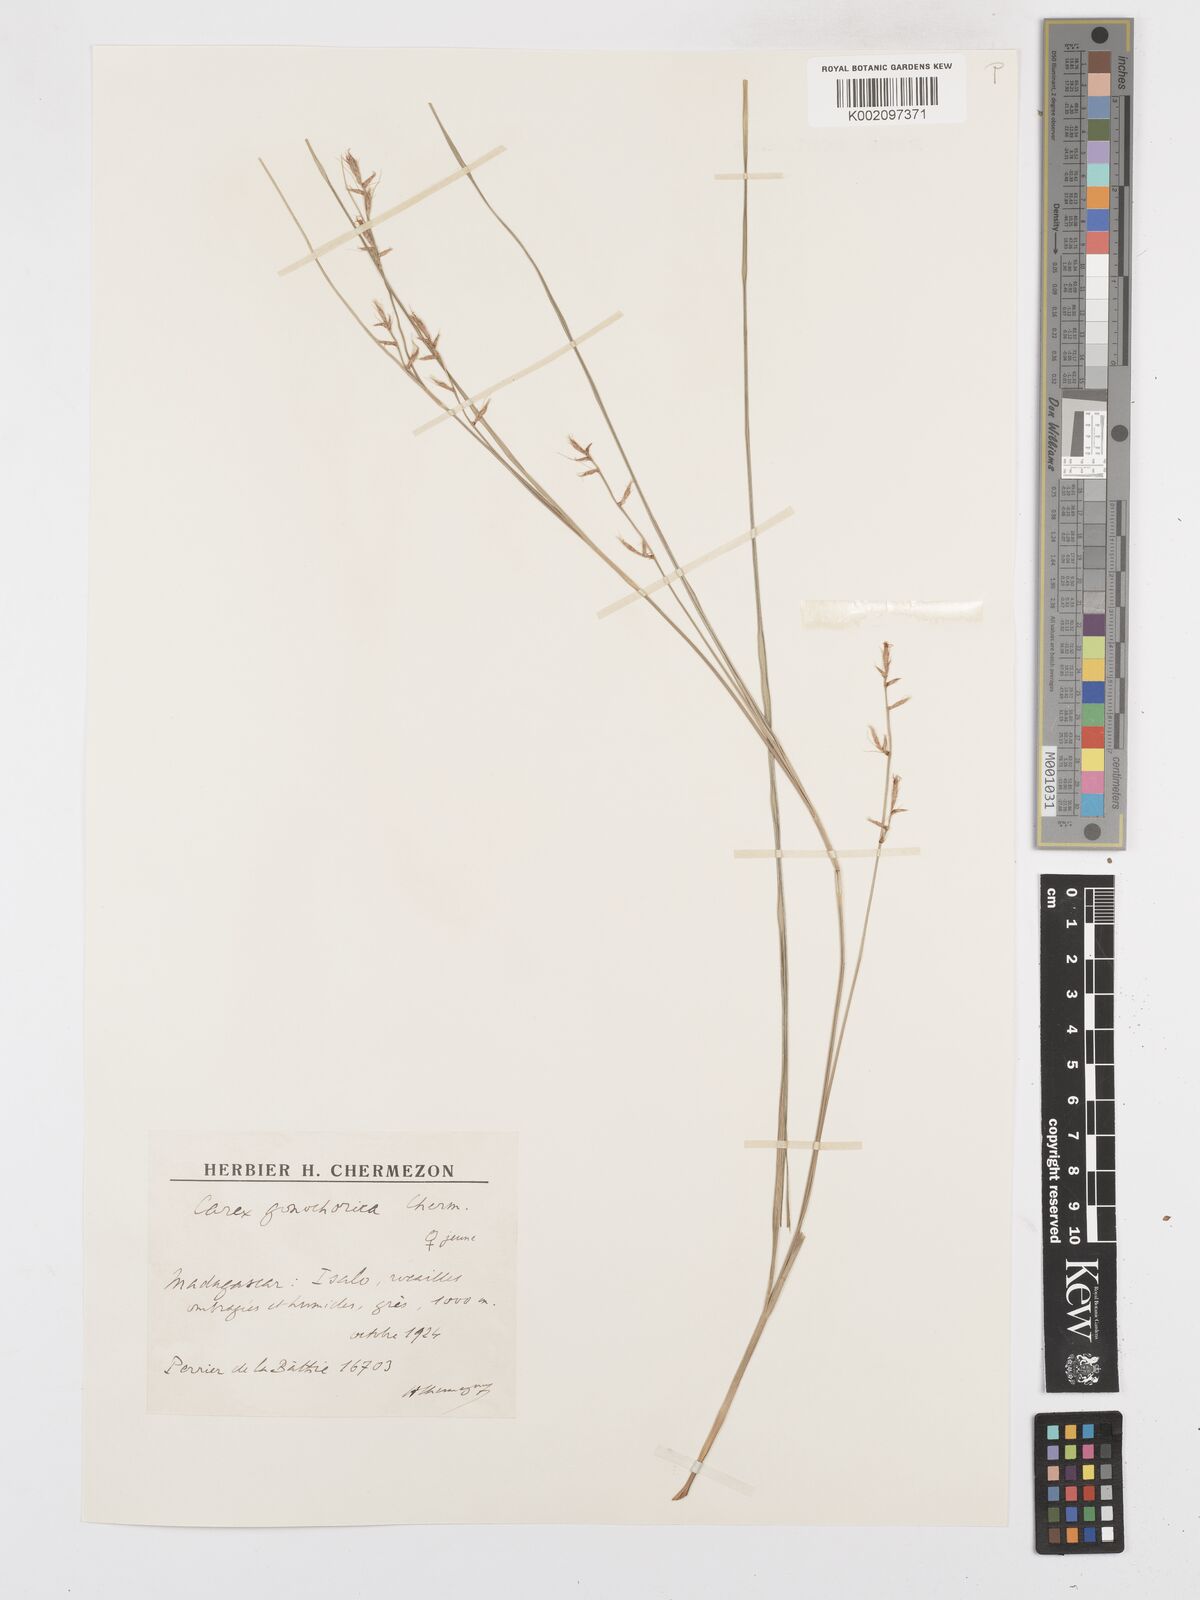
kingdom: Plantae
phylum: Tracheophyta
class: Liliopsida
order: Poales
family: Cyperaceae
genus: Carex
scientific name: Carex pyramidalis
